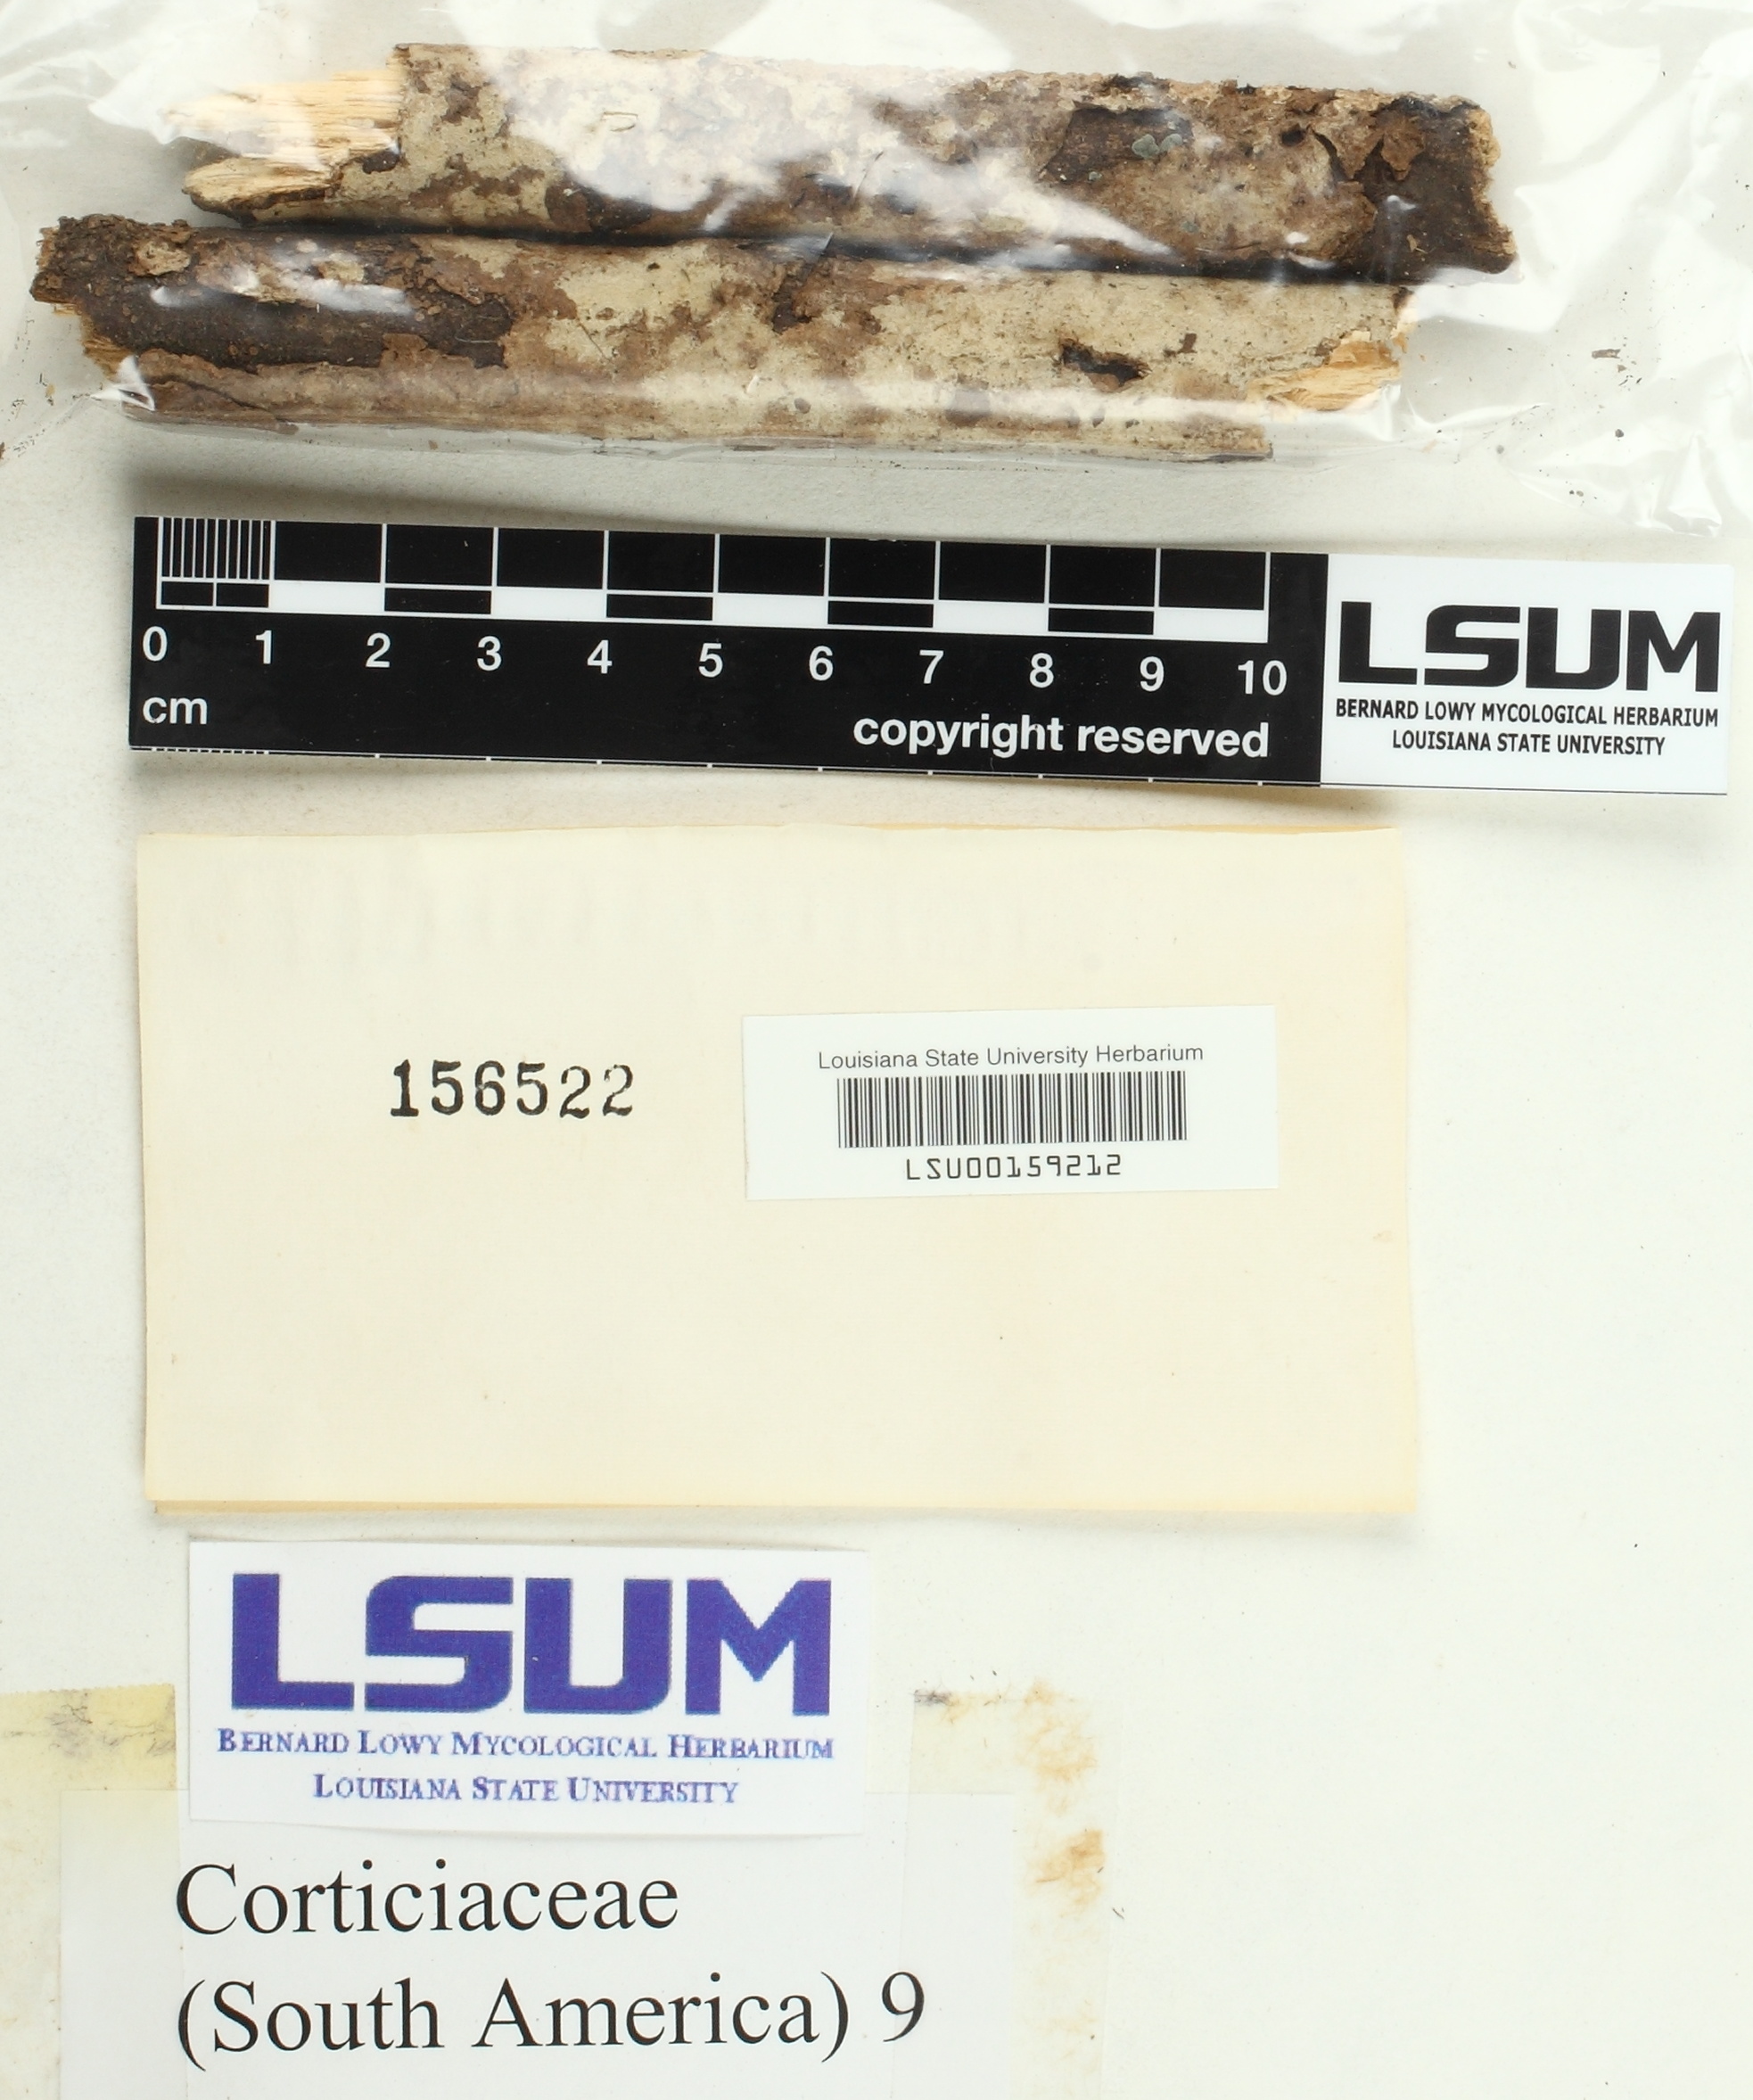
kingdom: Fungi
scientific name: Fungi
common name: Fungi
